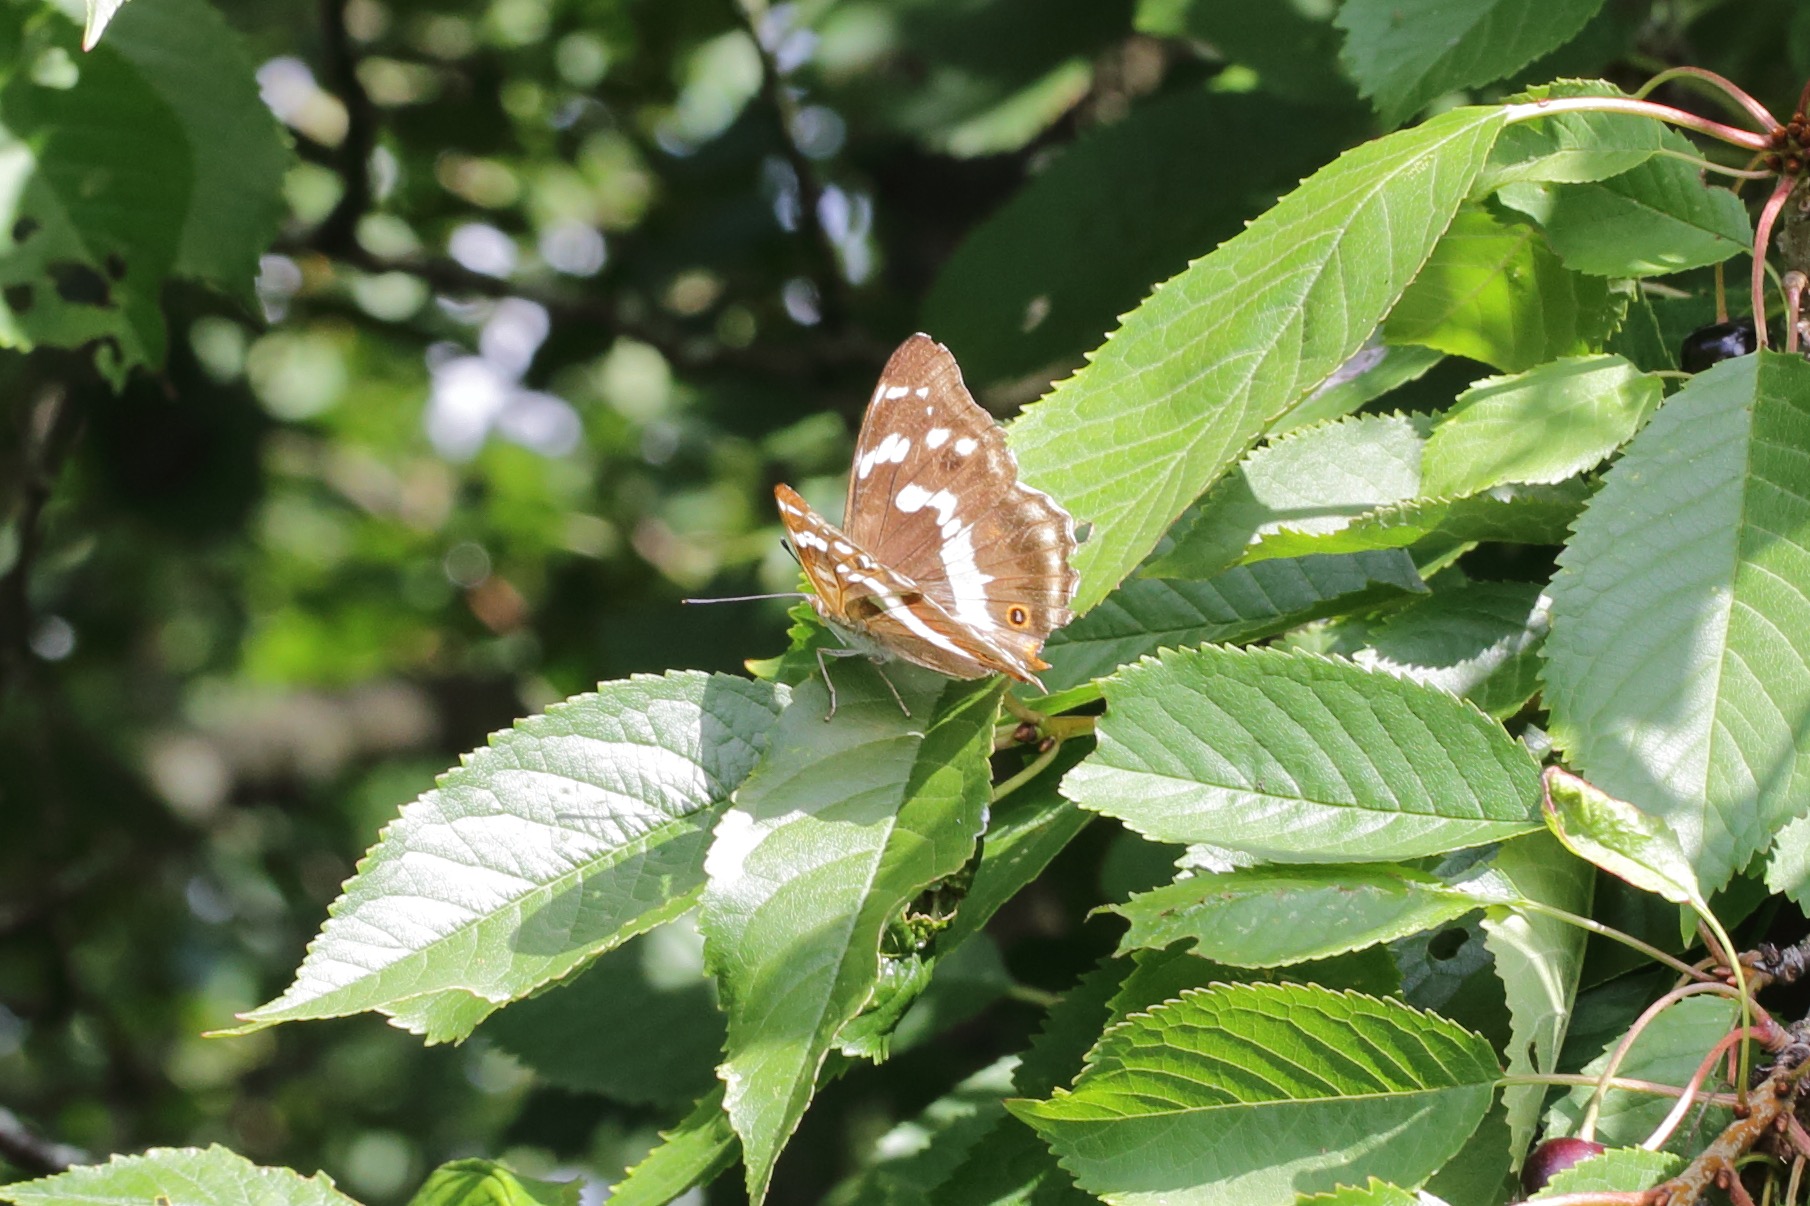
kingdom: Animalia
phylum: Arthropoda
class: Insecta
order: Lepidoptera
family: Nymphalidae
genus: Apatura
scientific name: Apatura iris
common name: Iris
